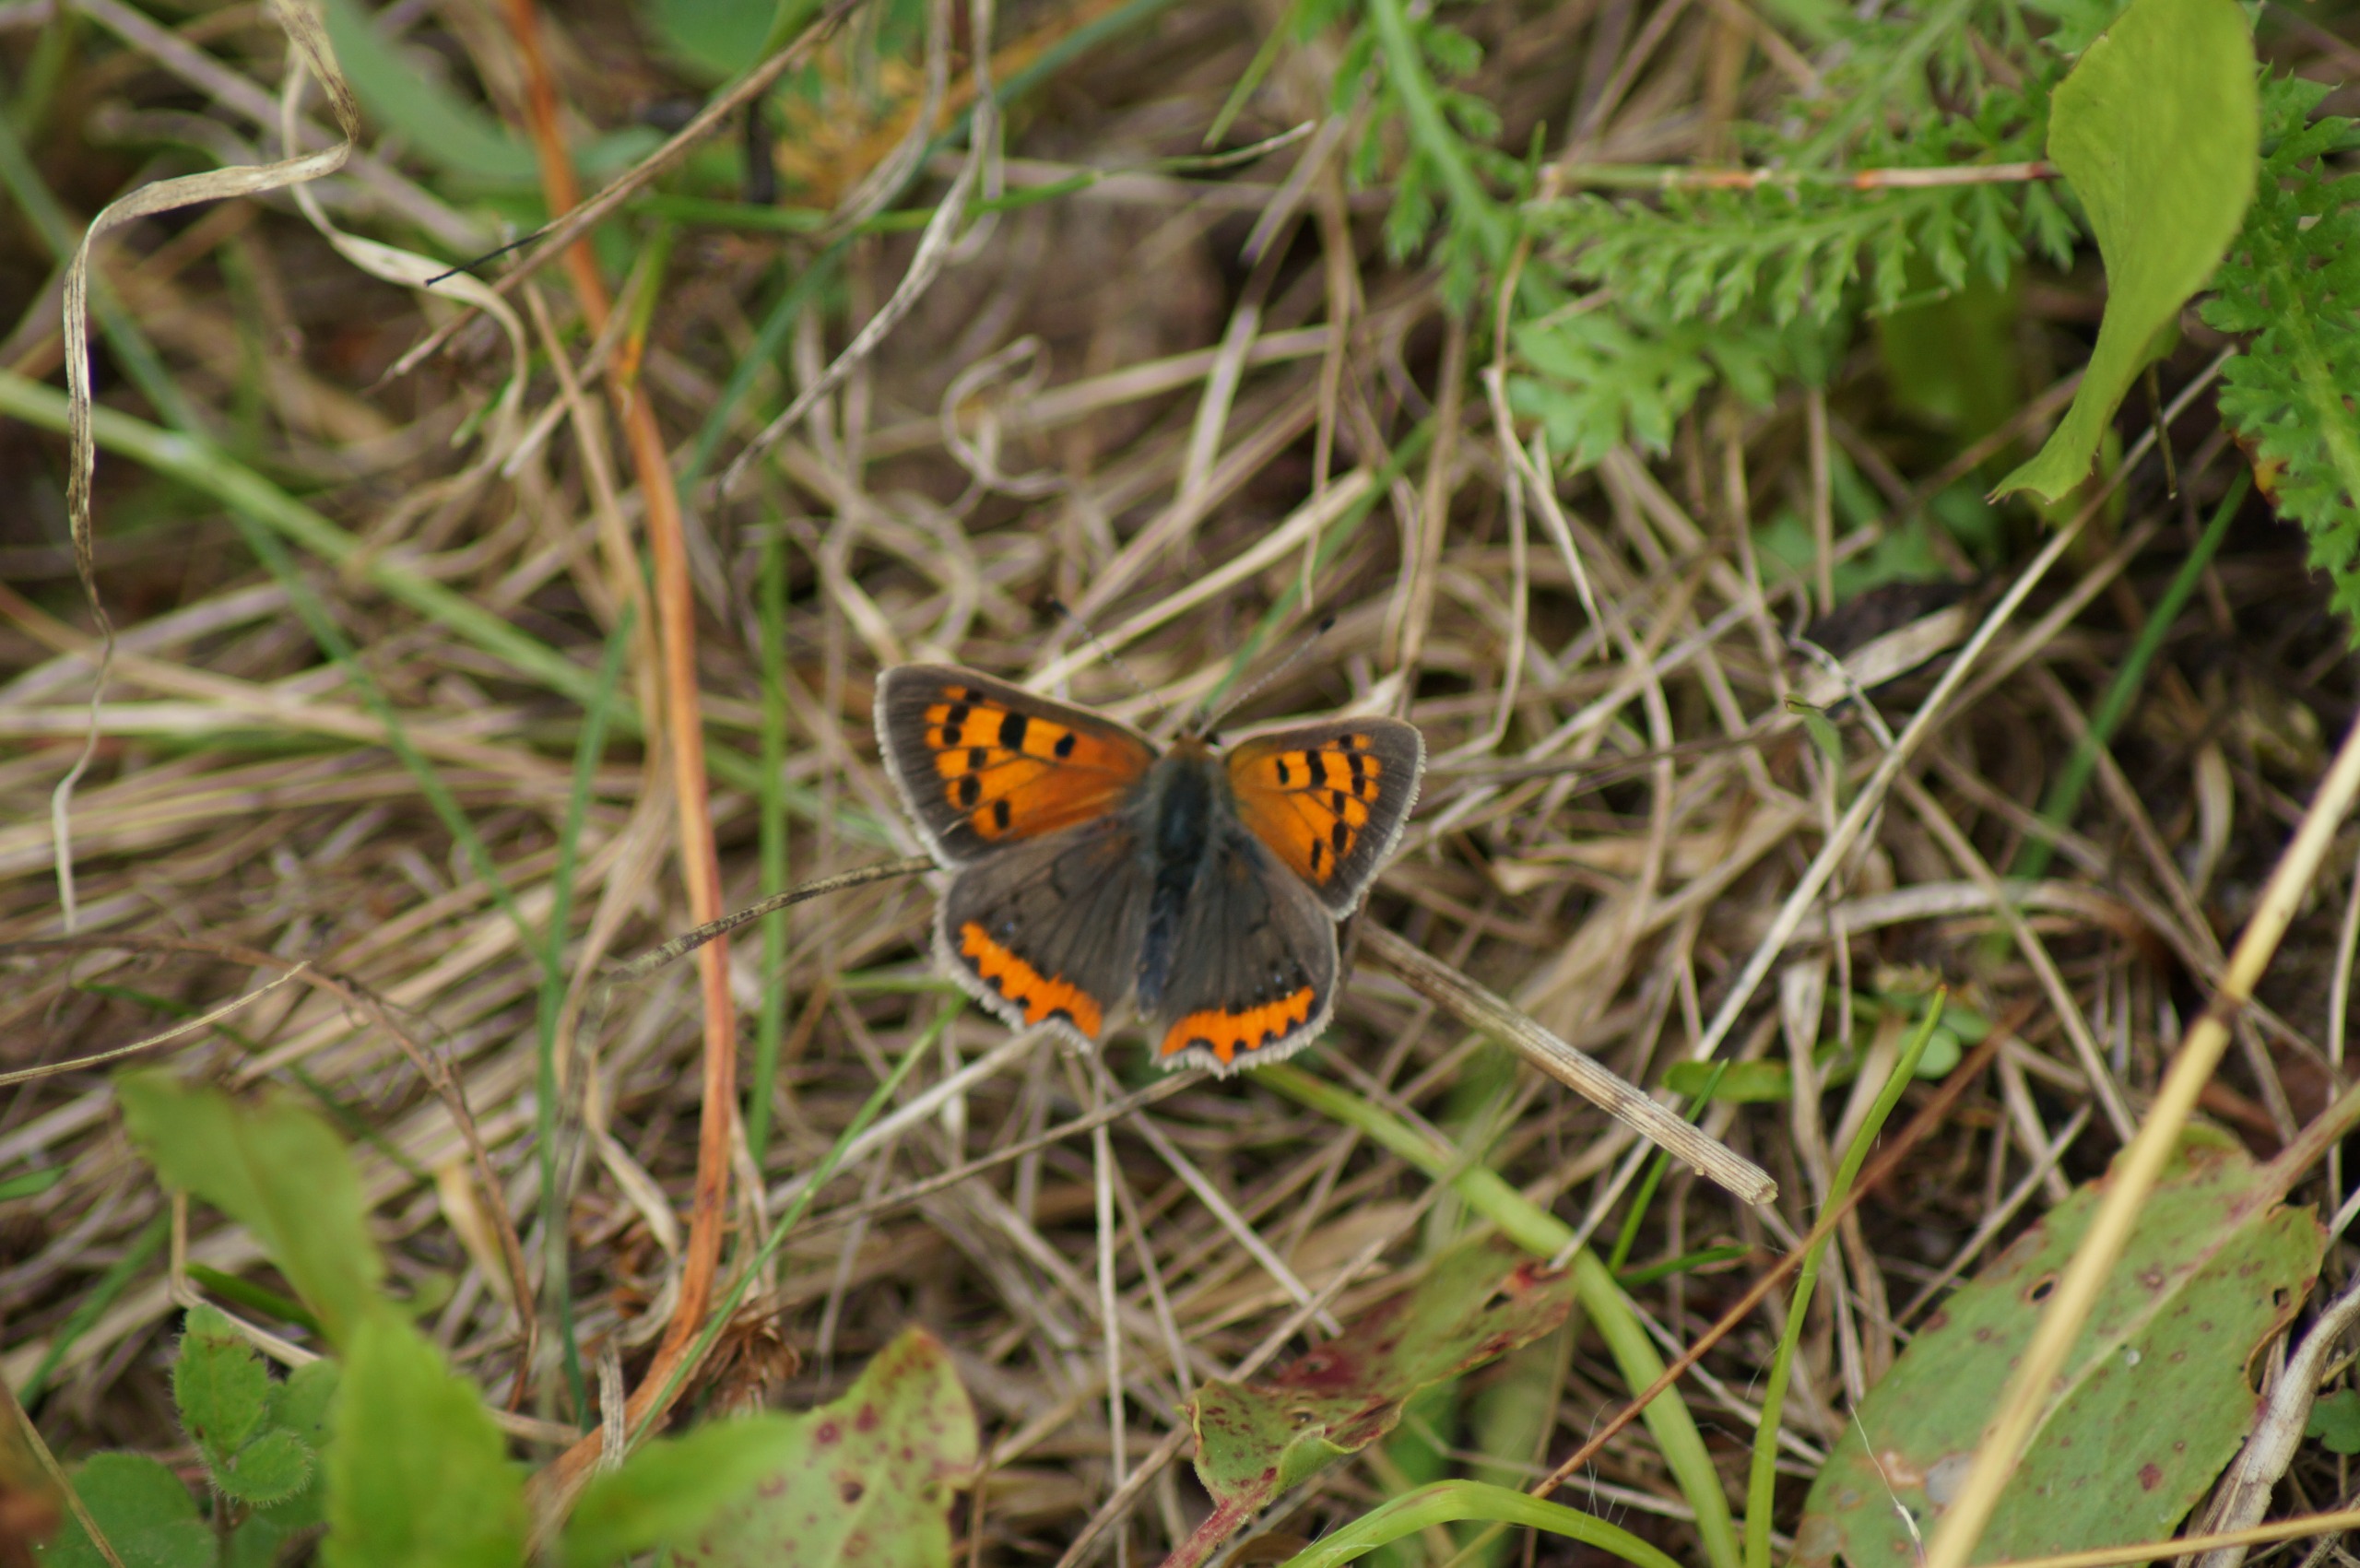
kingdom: Animalia
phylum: Arthropoda
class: Insecta
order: Lepidoptera
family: Lycaenidae
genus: Lycaena
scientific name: Lycaena phlaeas
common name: Lille ildfugl
